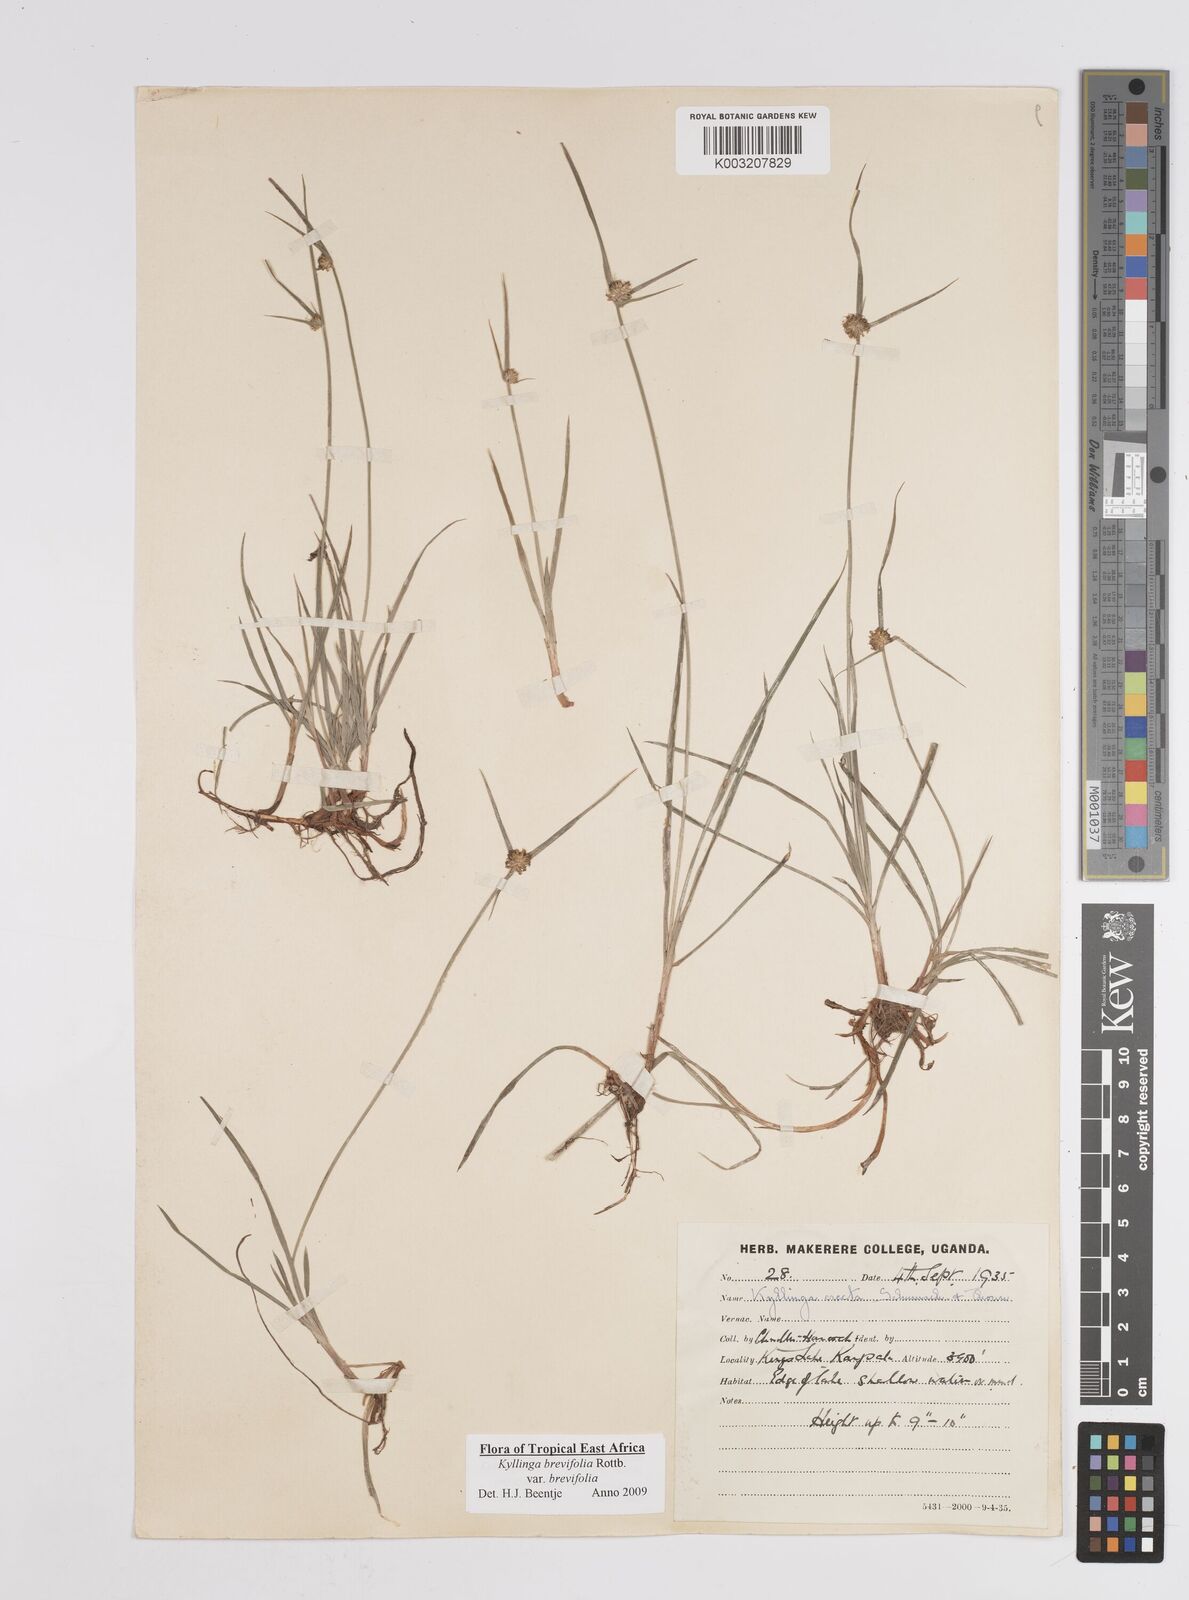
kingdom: Plantae
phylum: Tracheophyta
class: Liliopsida
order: Poales
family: Cyperaceae
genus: Cyperus
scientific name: Cyperus erectus
